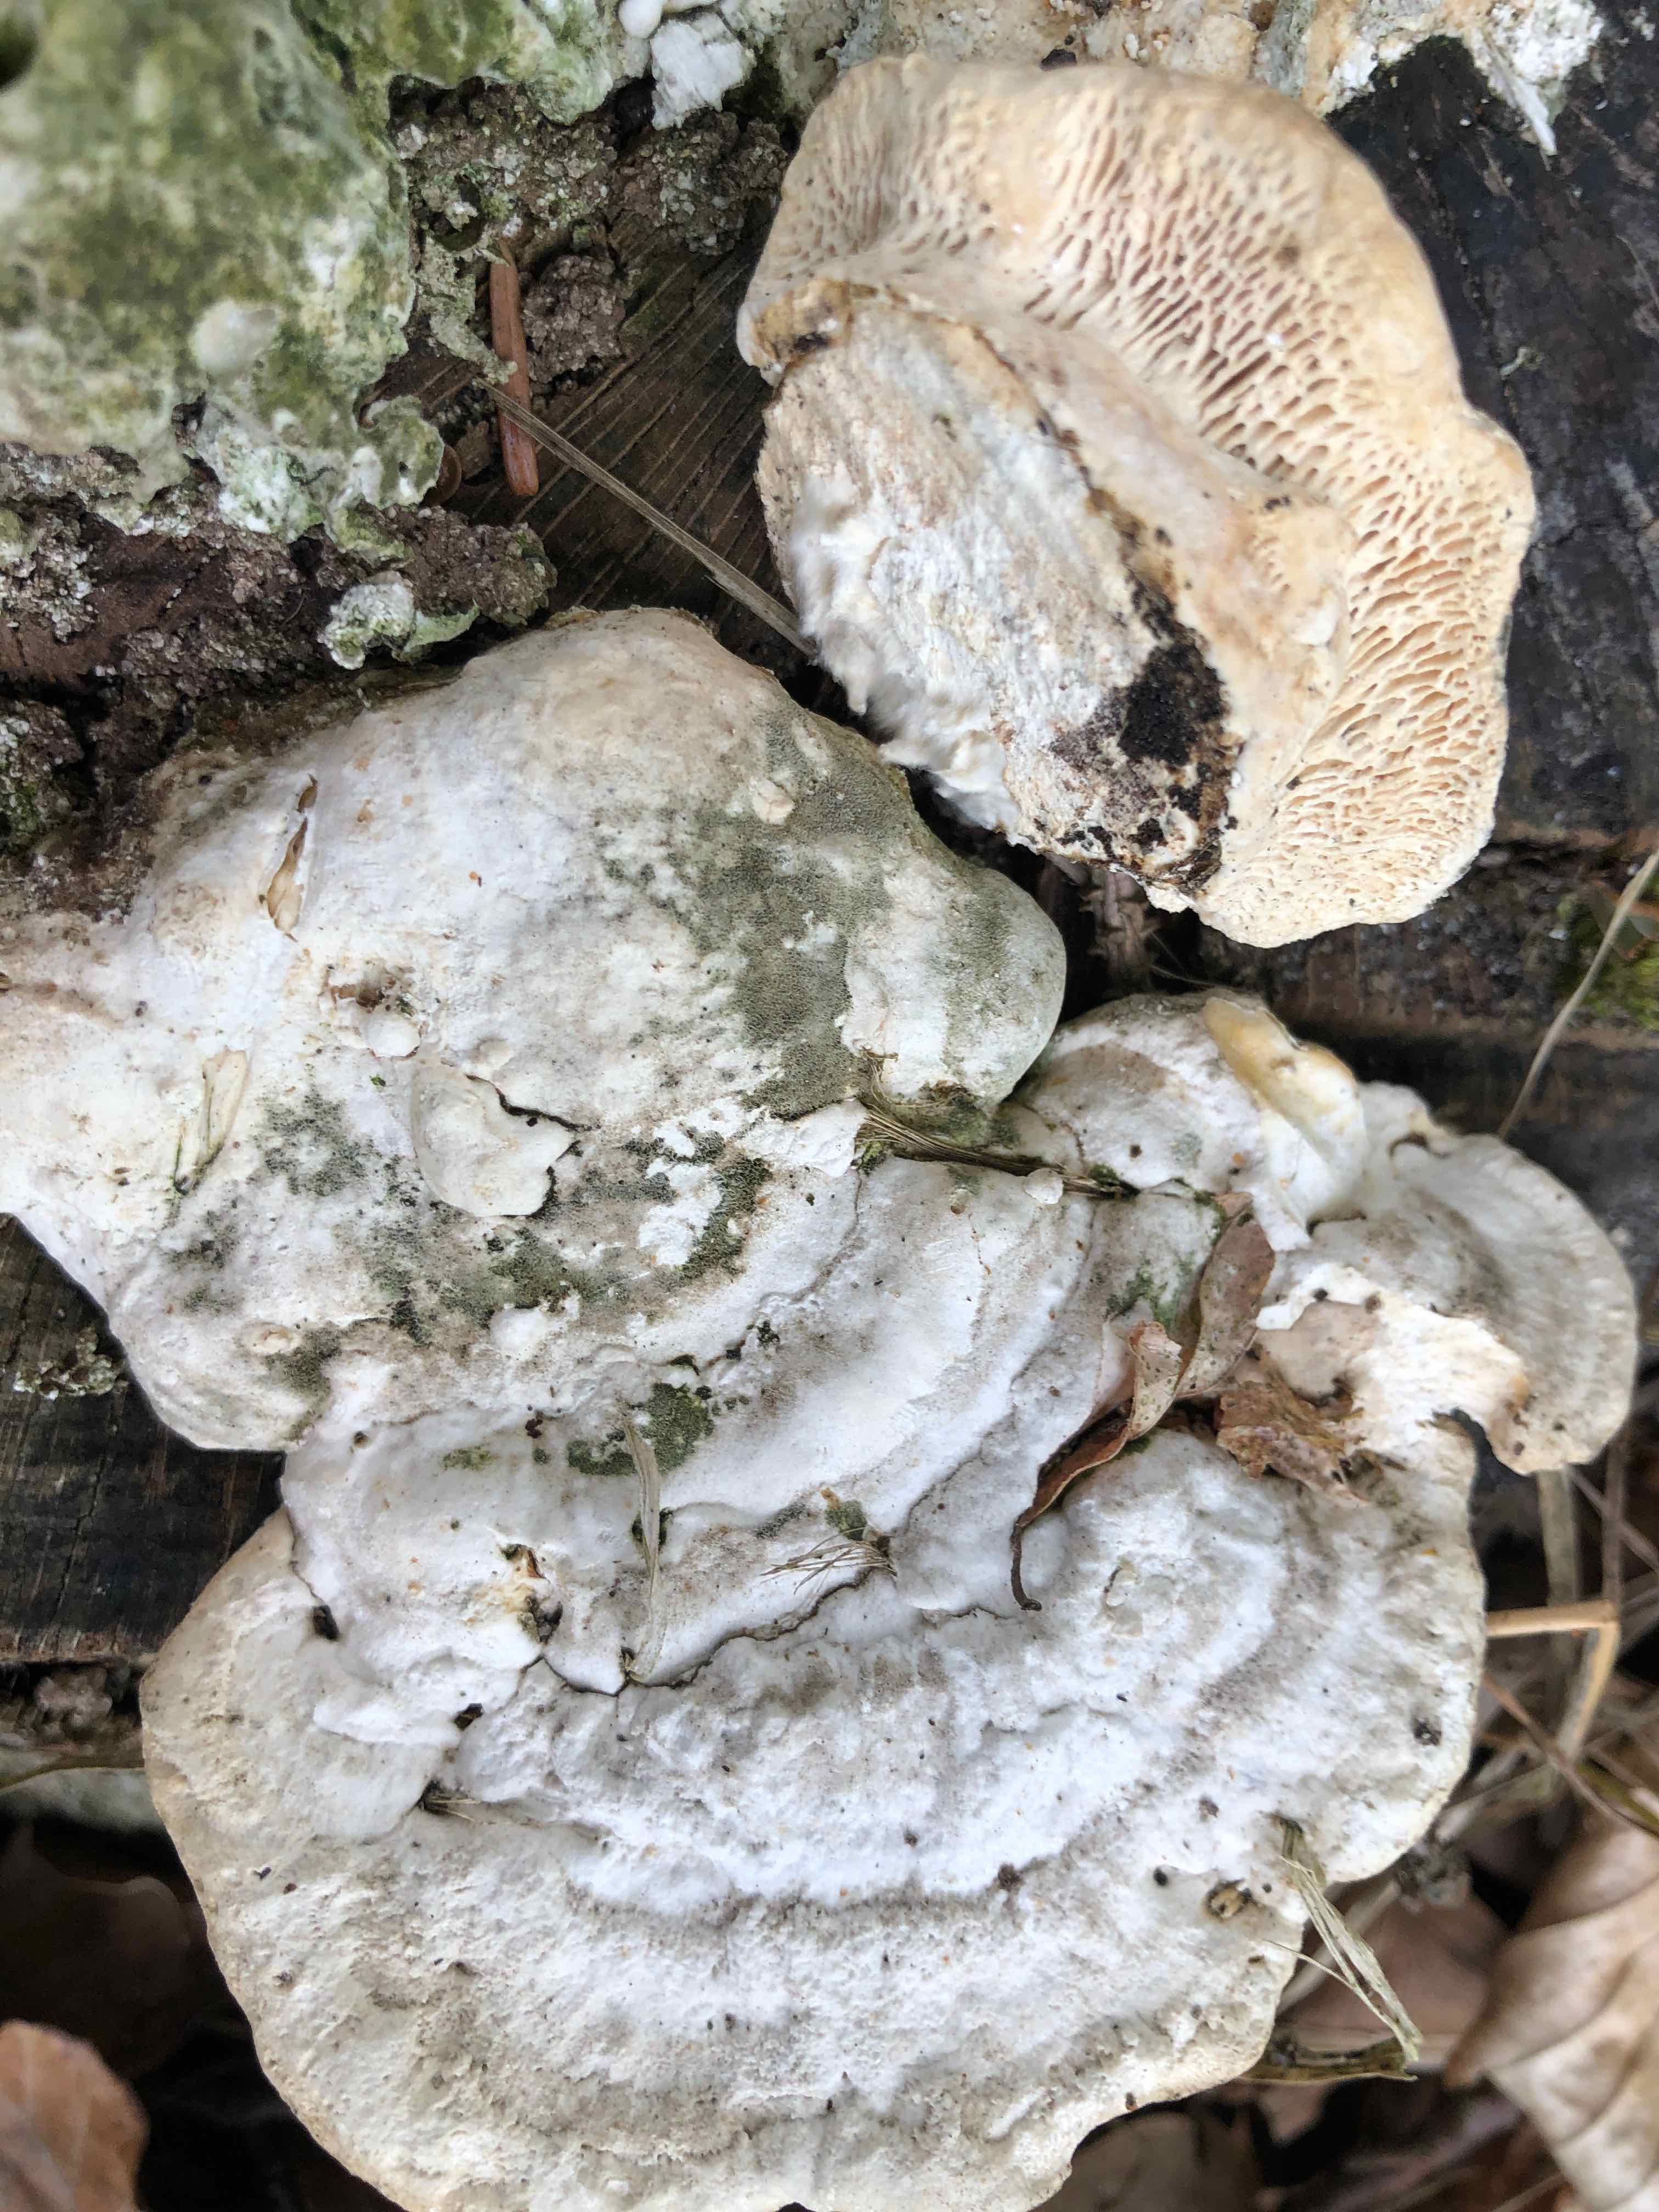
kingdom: Fungi
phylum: Basidiomycota
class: Agaricomycetes
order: Polyporales
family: Polyporaceae
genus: Trametes
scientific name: Trametes gibbosa
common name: puklet læderporesvamp
